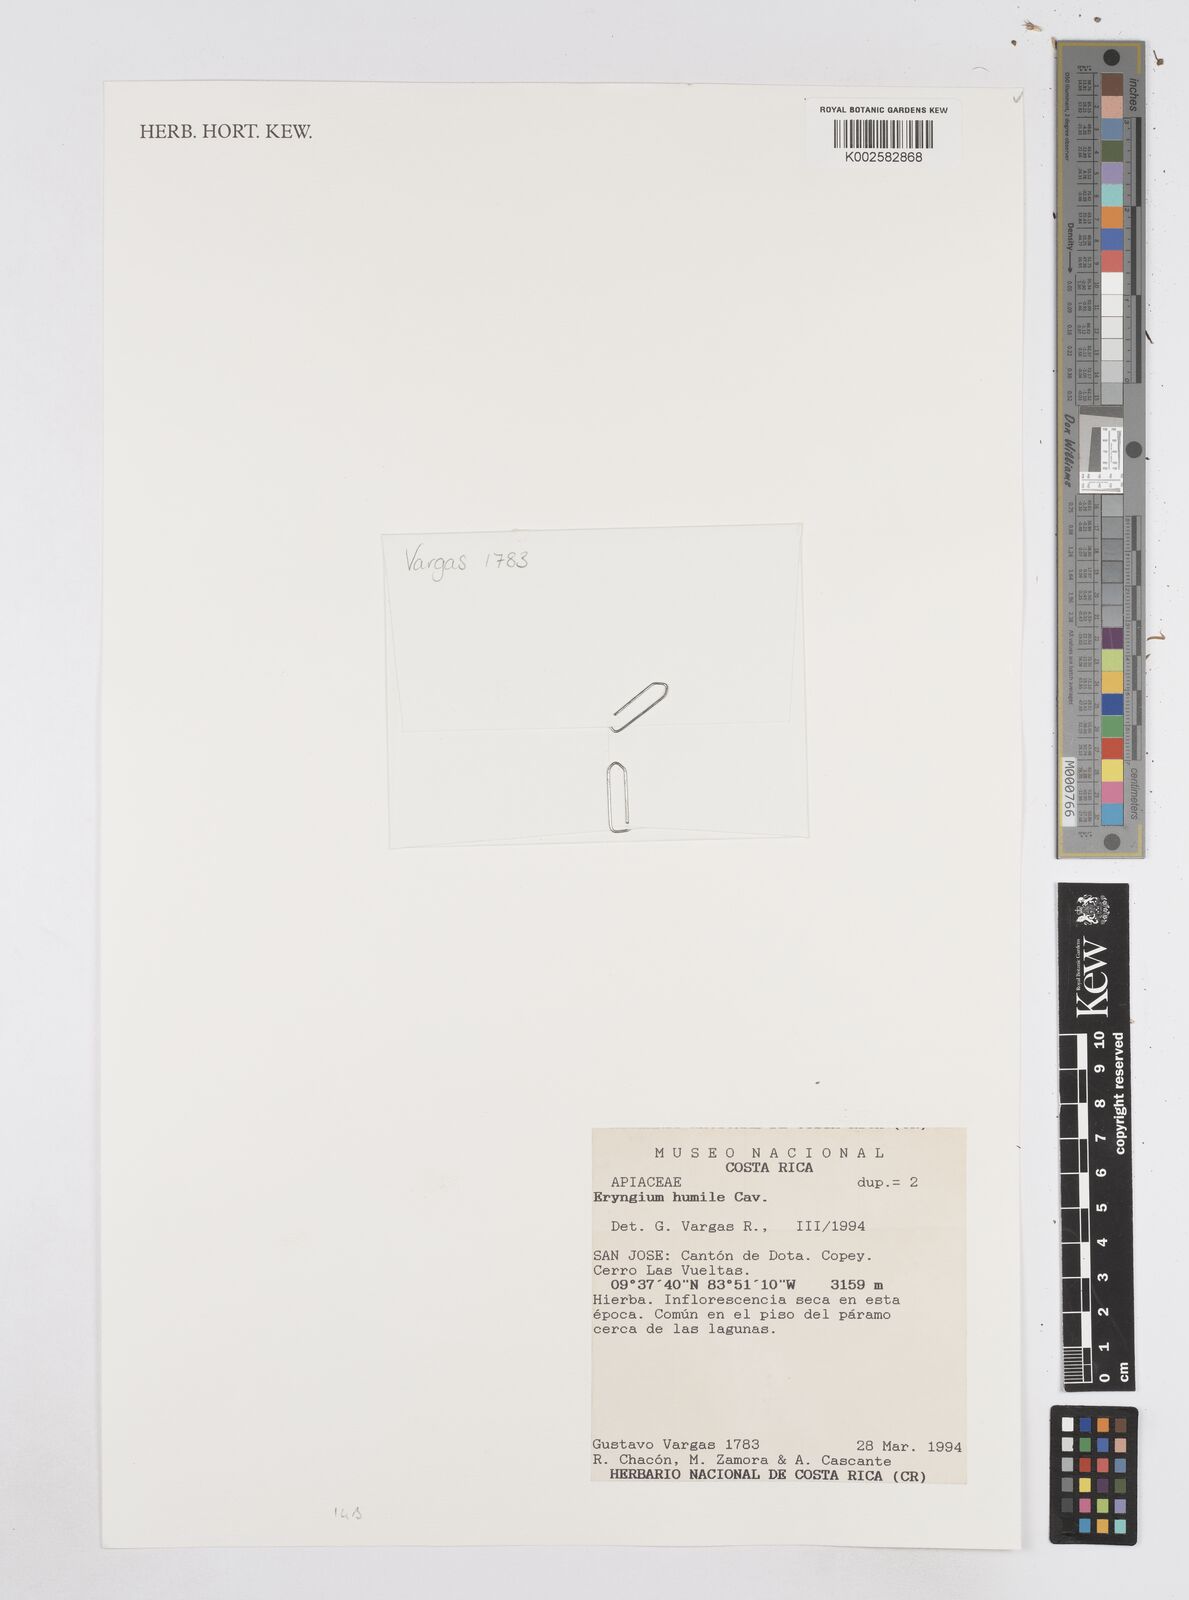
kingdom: Plantae
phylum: Tracheophyta
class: Magnoliopsida
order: Apiales
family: Apiaceae
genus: Eryngium
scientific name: Eryngium humile
